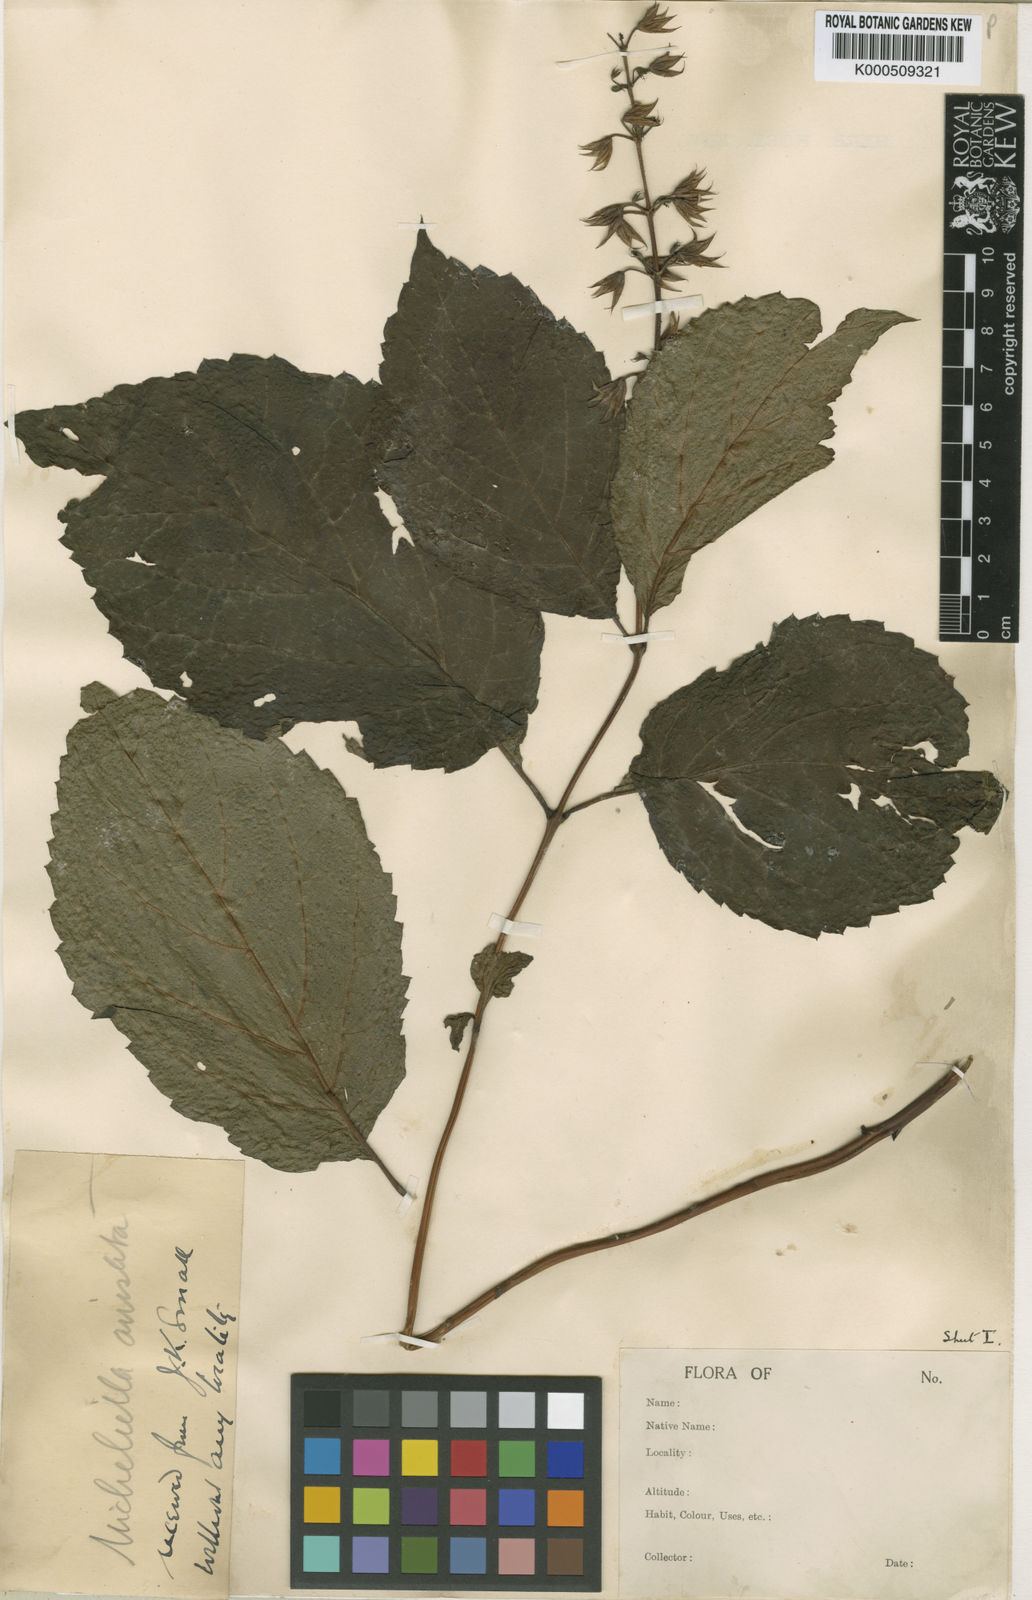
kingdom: Plantae
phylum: Tracheophyta
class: Magnoliopsida
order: Lamiales
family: Lamiaceae
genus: Collinsonia
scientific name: Collinsonia anisata
